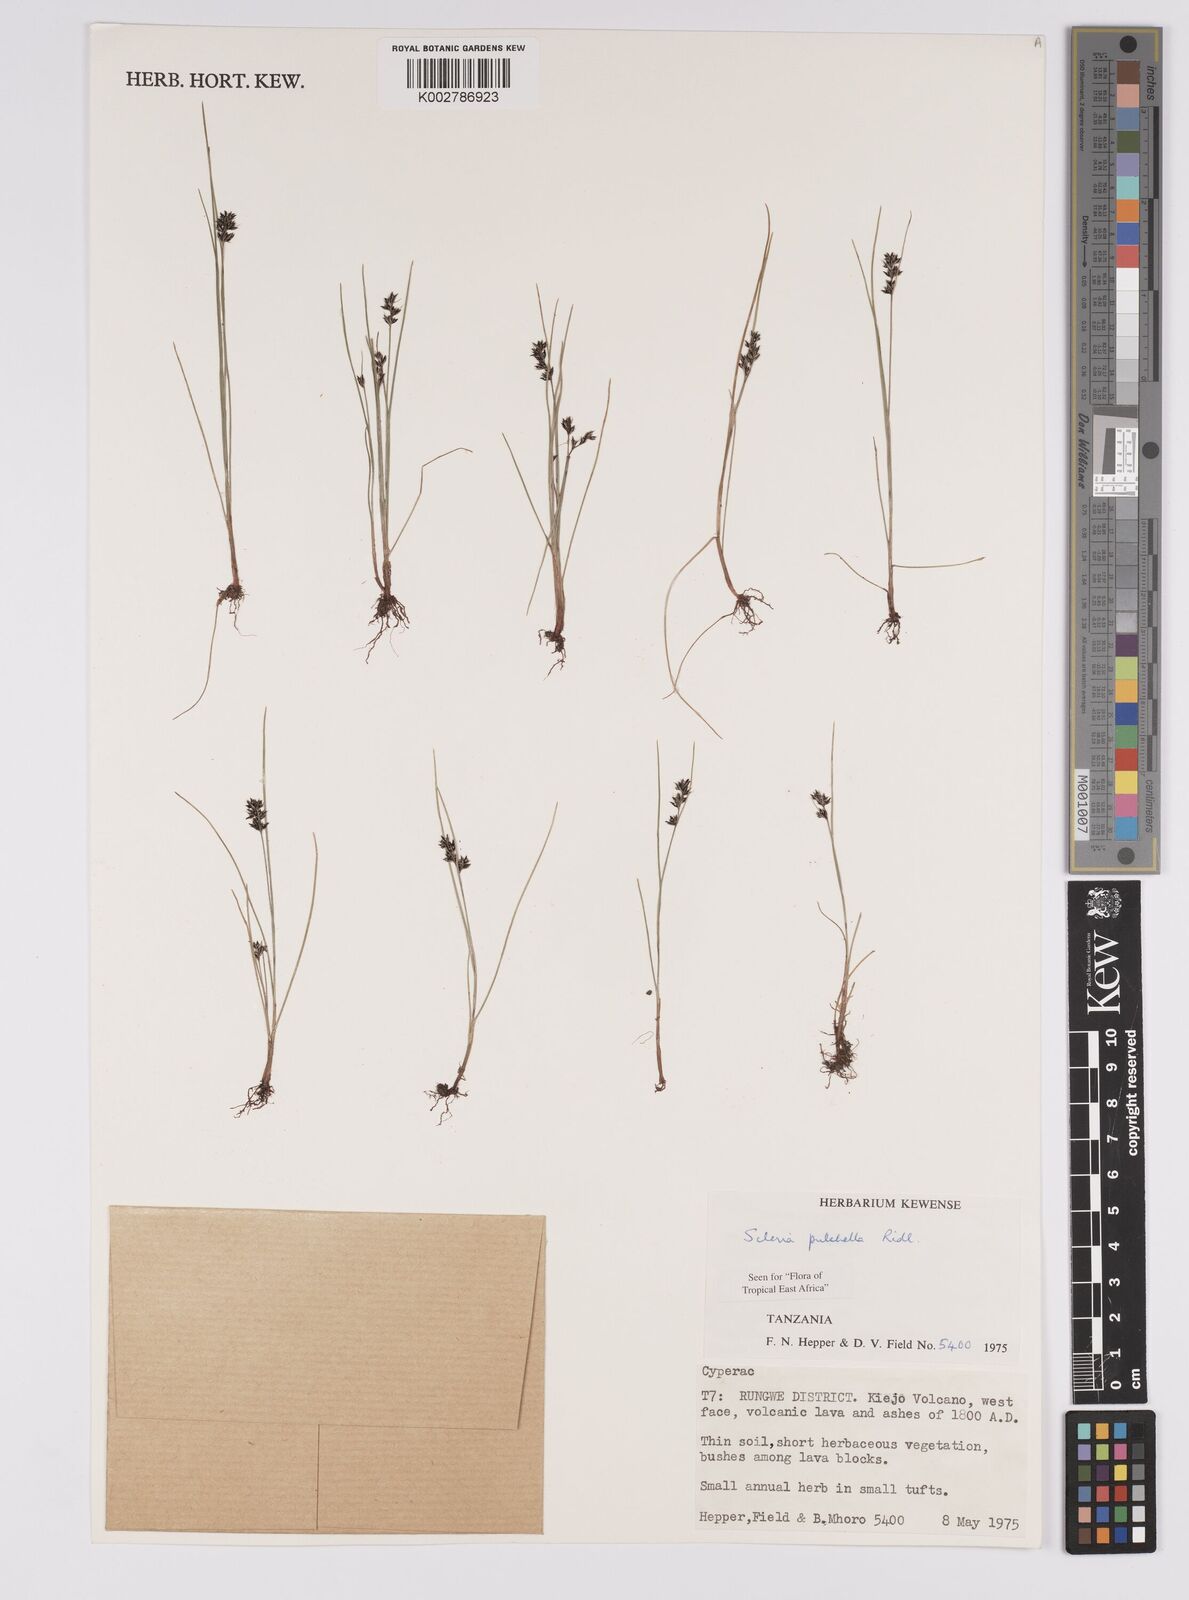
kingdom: Plantae
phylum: Tracheophyta
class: Liliopsida
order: Poales
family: Cyperaceae
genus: Scleria
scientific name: Scleria pulchella
